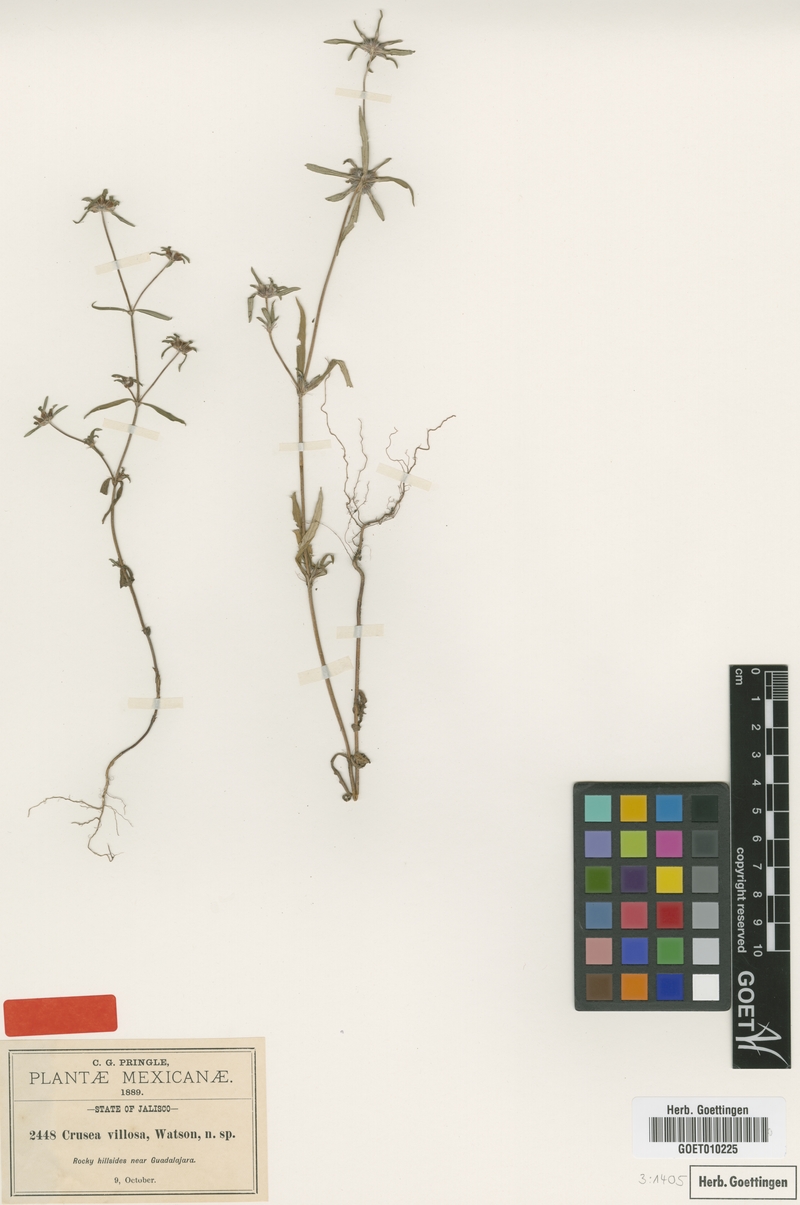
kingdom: Plantae
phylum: Tracheophyta
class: Magnoliopsida
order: Gentianales
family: Rubiaceae
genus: Crusea
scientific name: Crusea psyllioides
